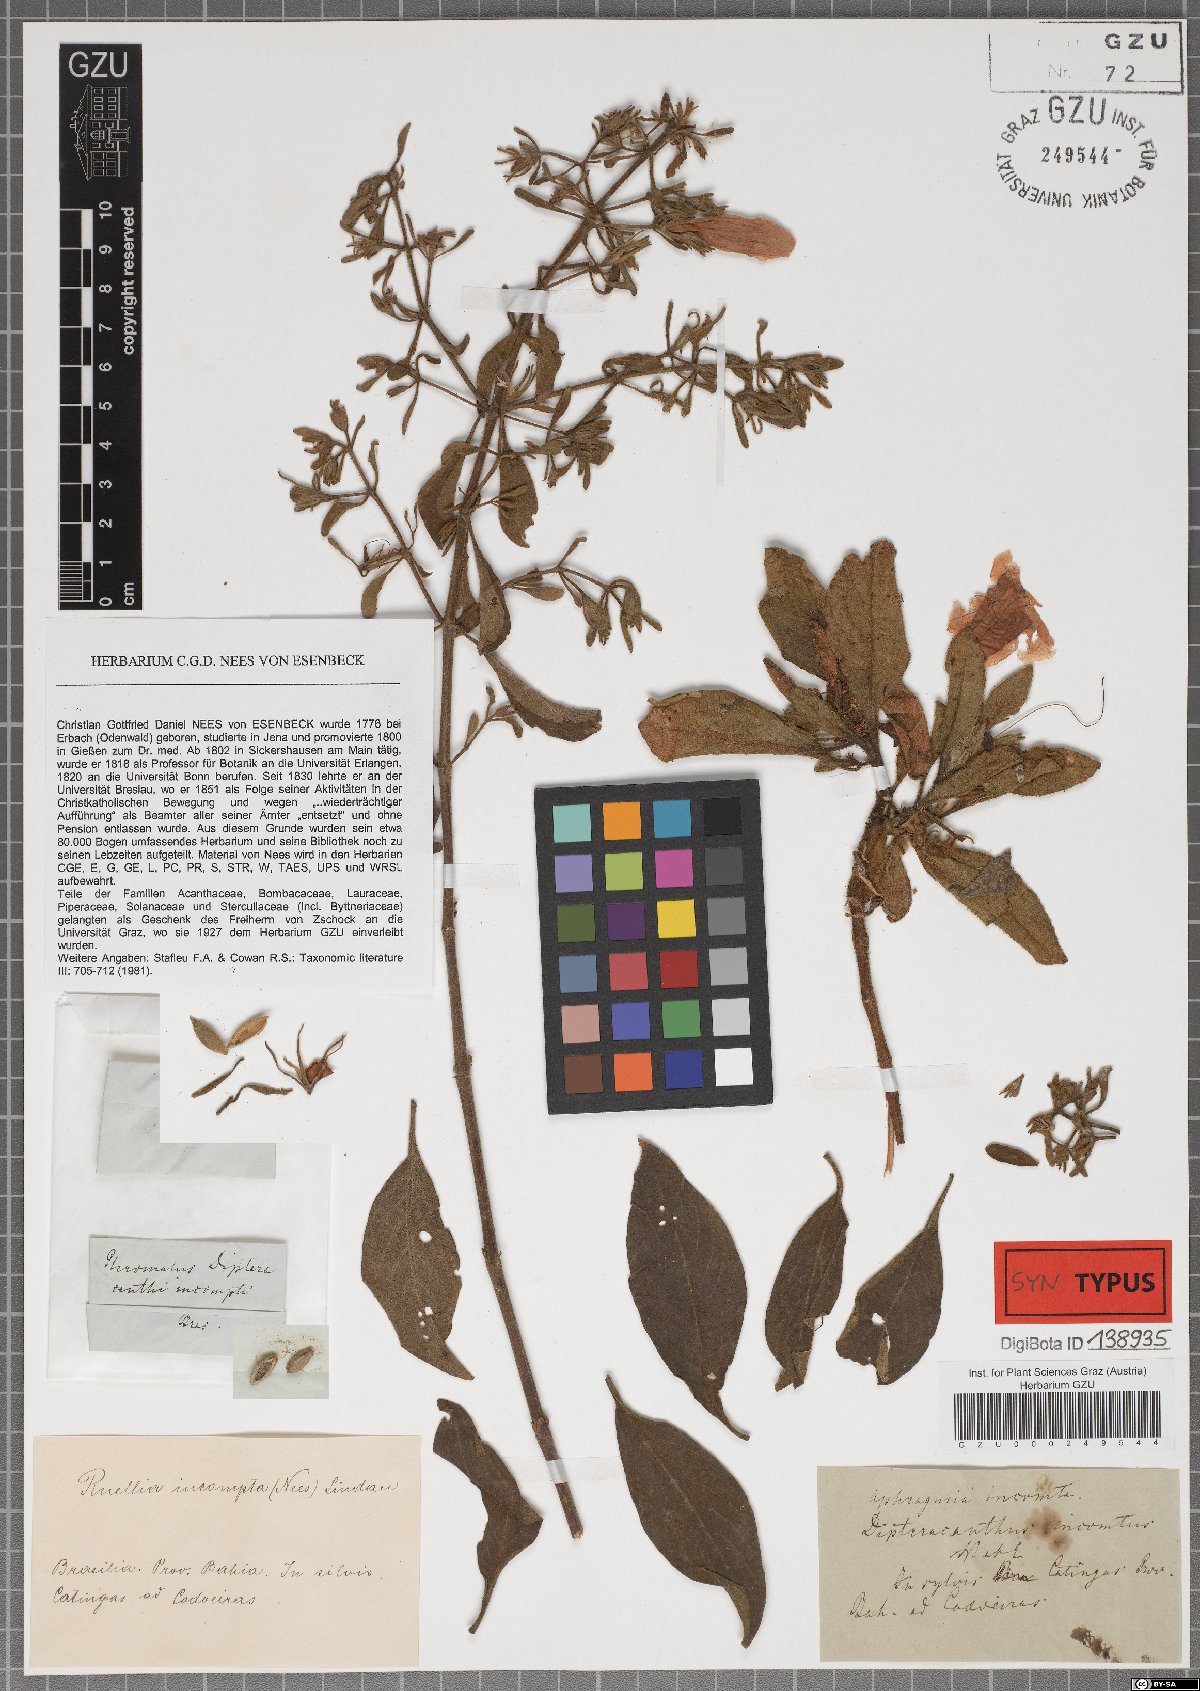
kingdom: Plantae
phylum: Tracheophyta
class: Magnoliopsida
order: Lamiales
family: Acanthaceae
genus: Ruellia
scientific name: Ruellia incomta
